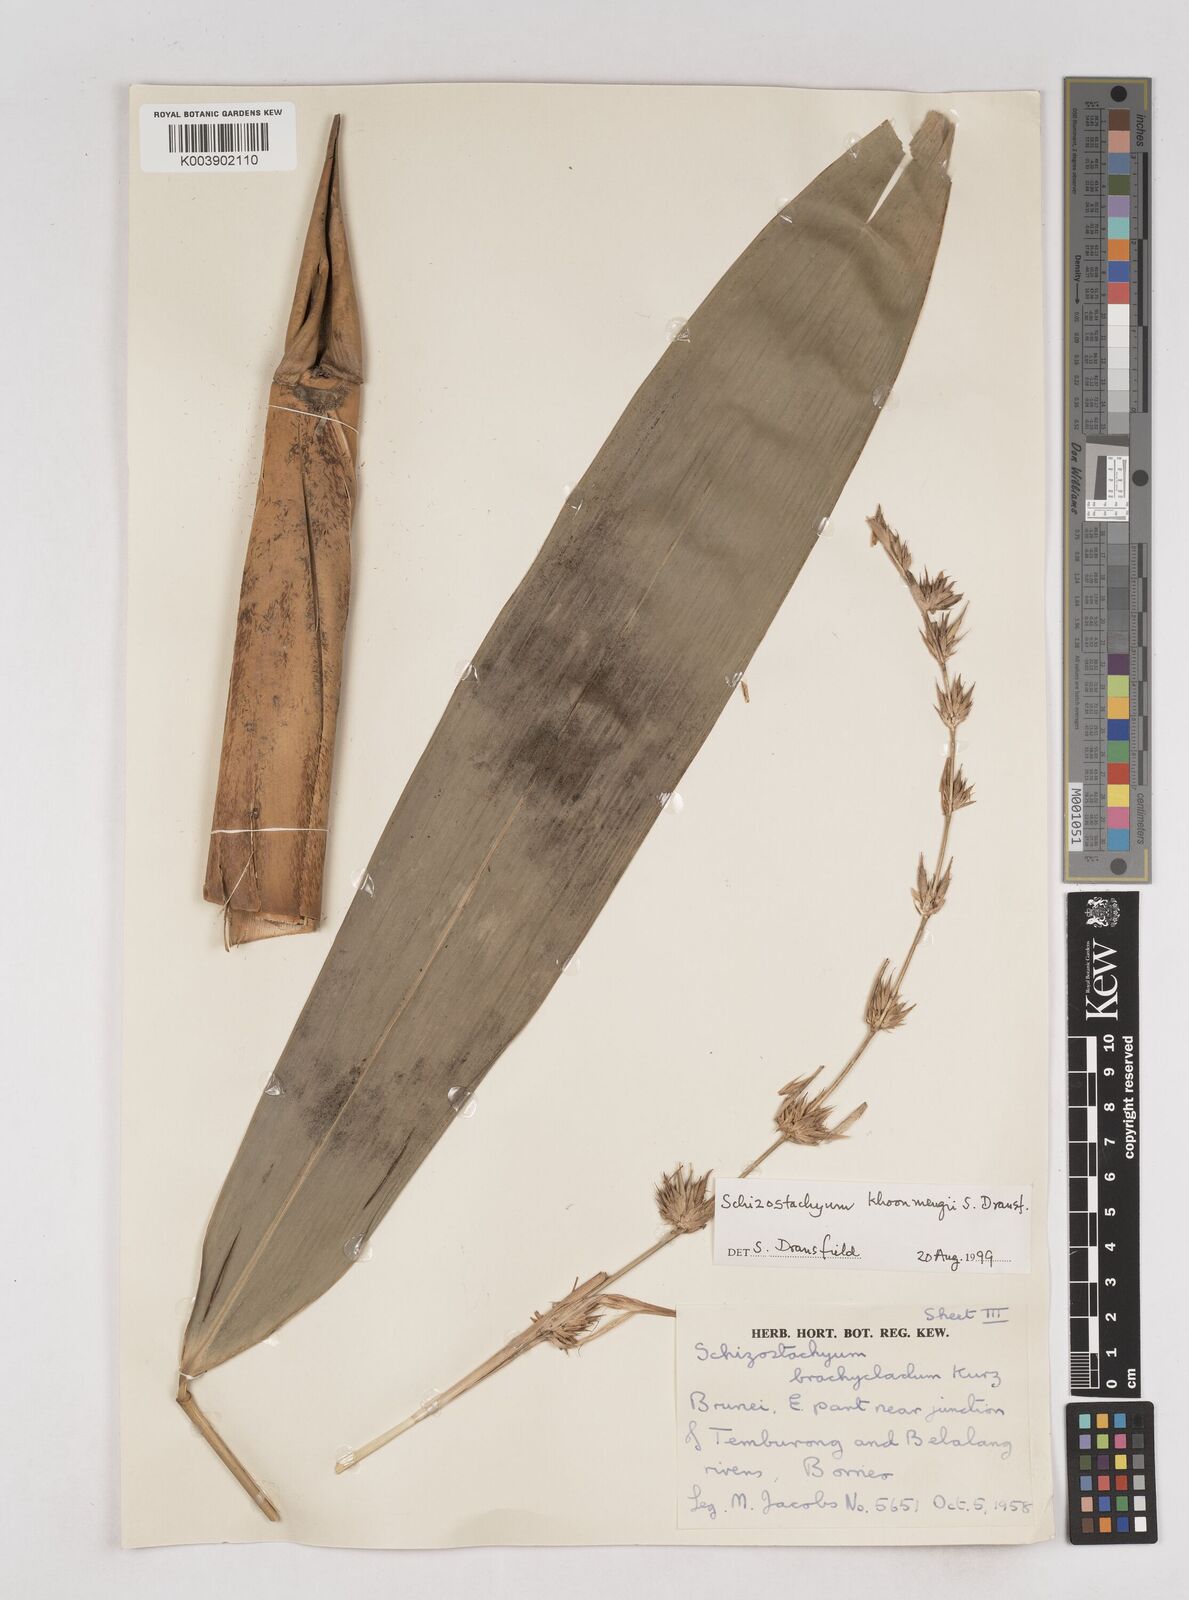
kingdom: Plantae
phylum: Tracheophyta
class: Liliopsida
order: Poales
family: Poaceae
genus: Schizostachyum
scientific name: Schizostachyum khoonmengii
